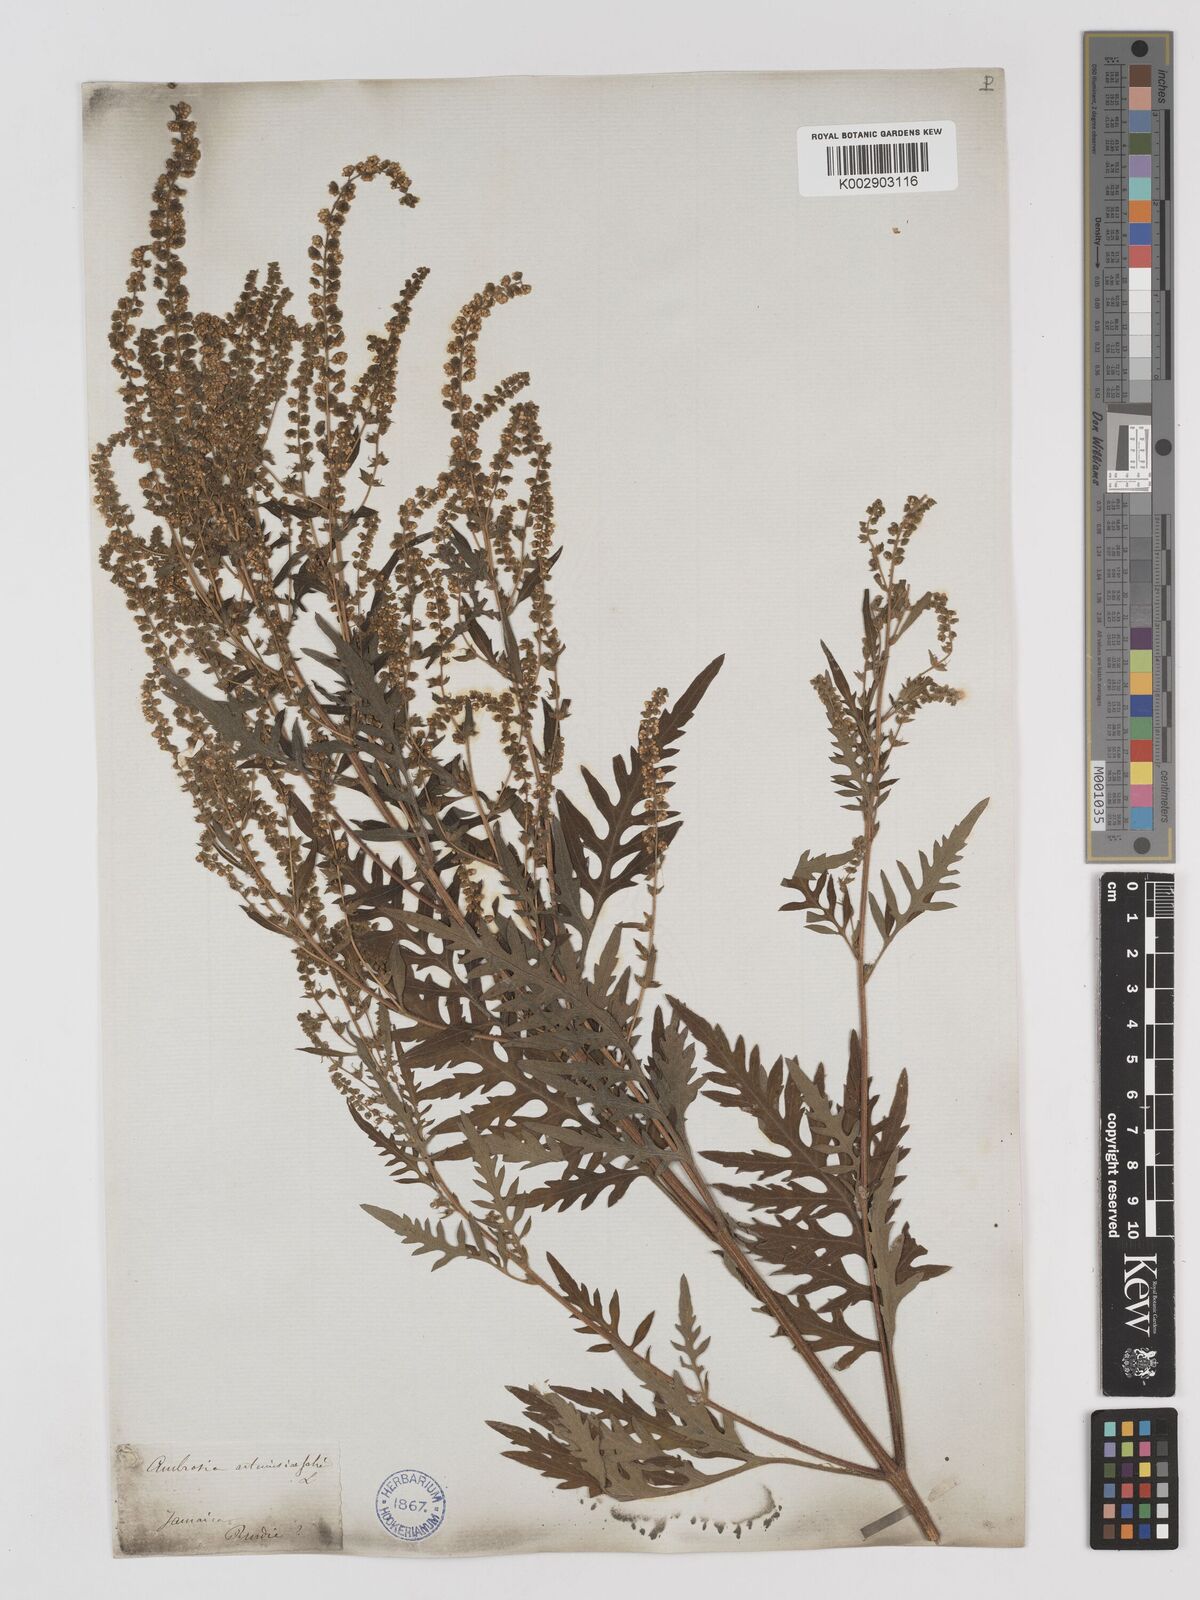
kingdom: Plantae
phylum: Tracheophyta
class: Magnoliopsida
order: Asterales
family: Asteraceae
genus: Ambrosia
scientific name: Ambrosia artemisiifolia
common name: Annual ragweed
